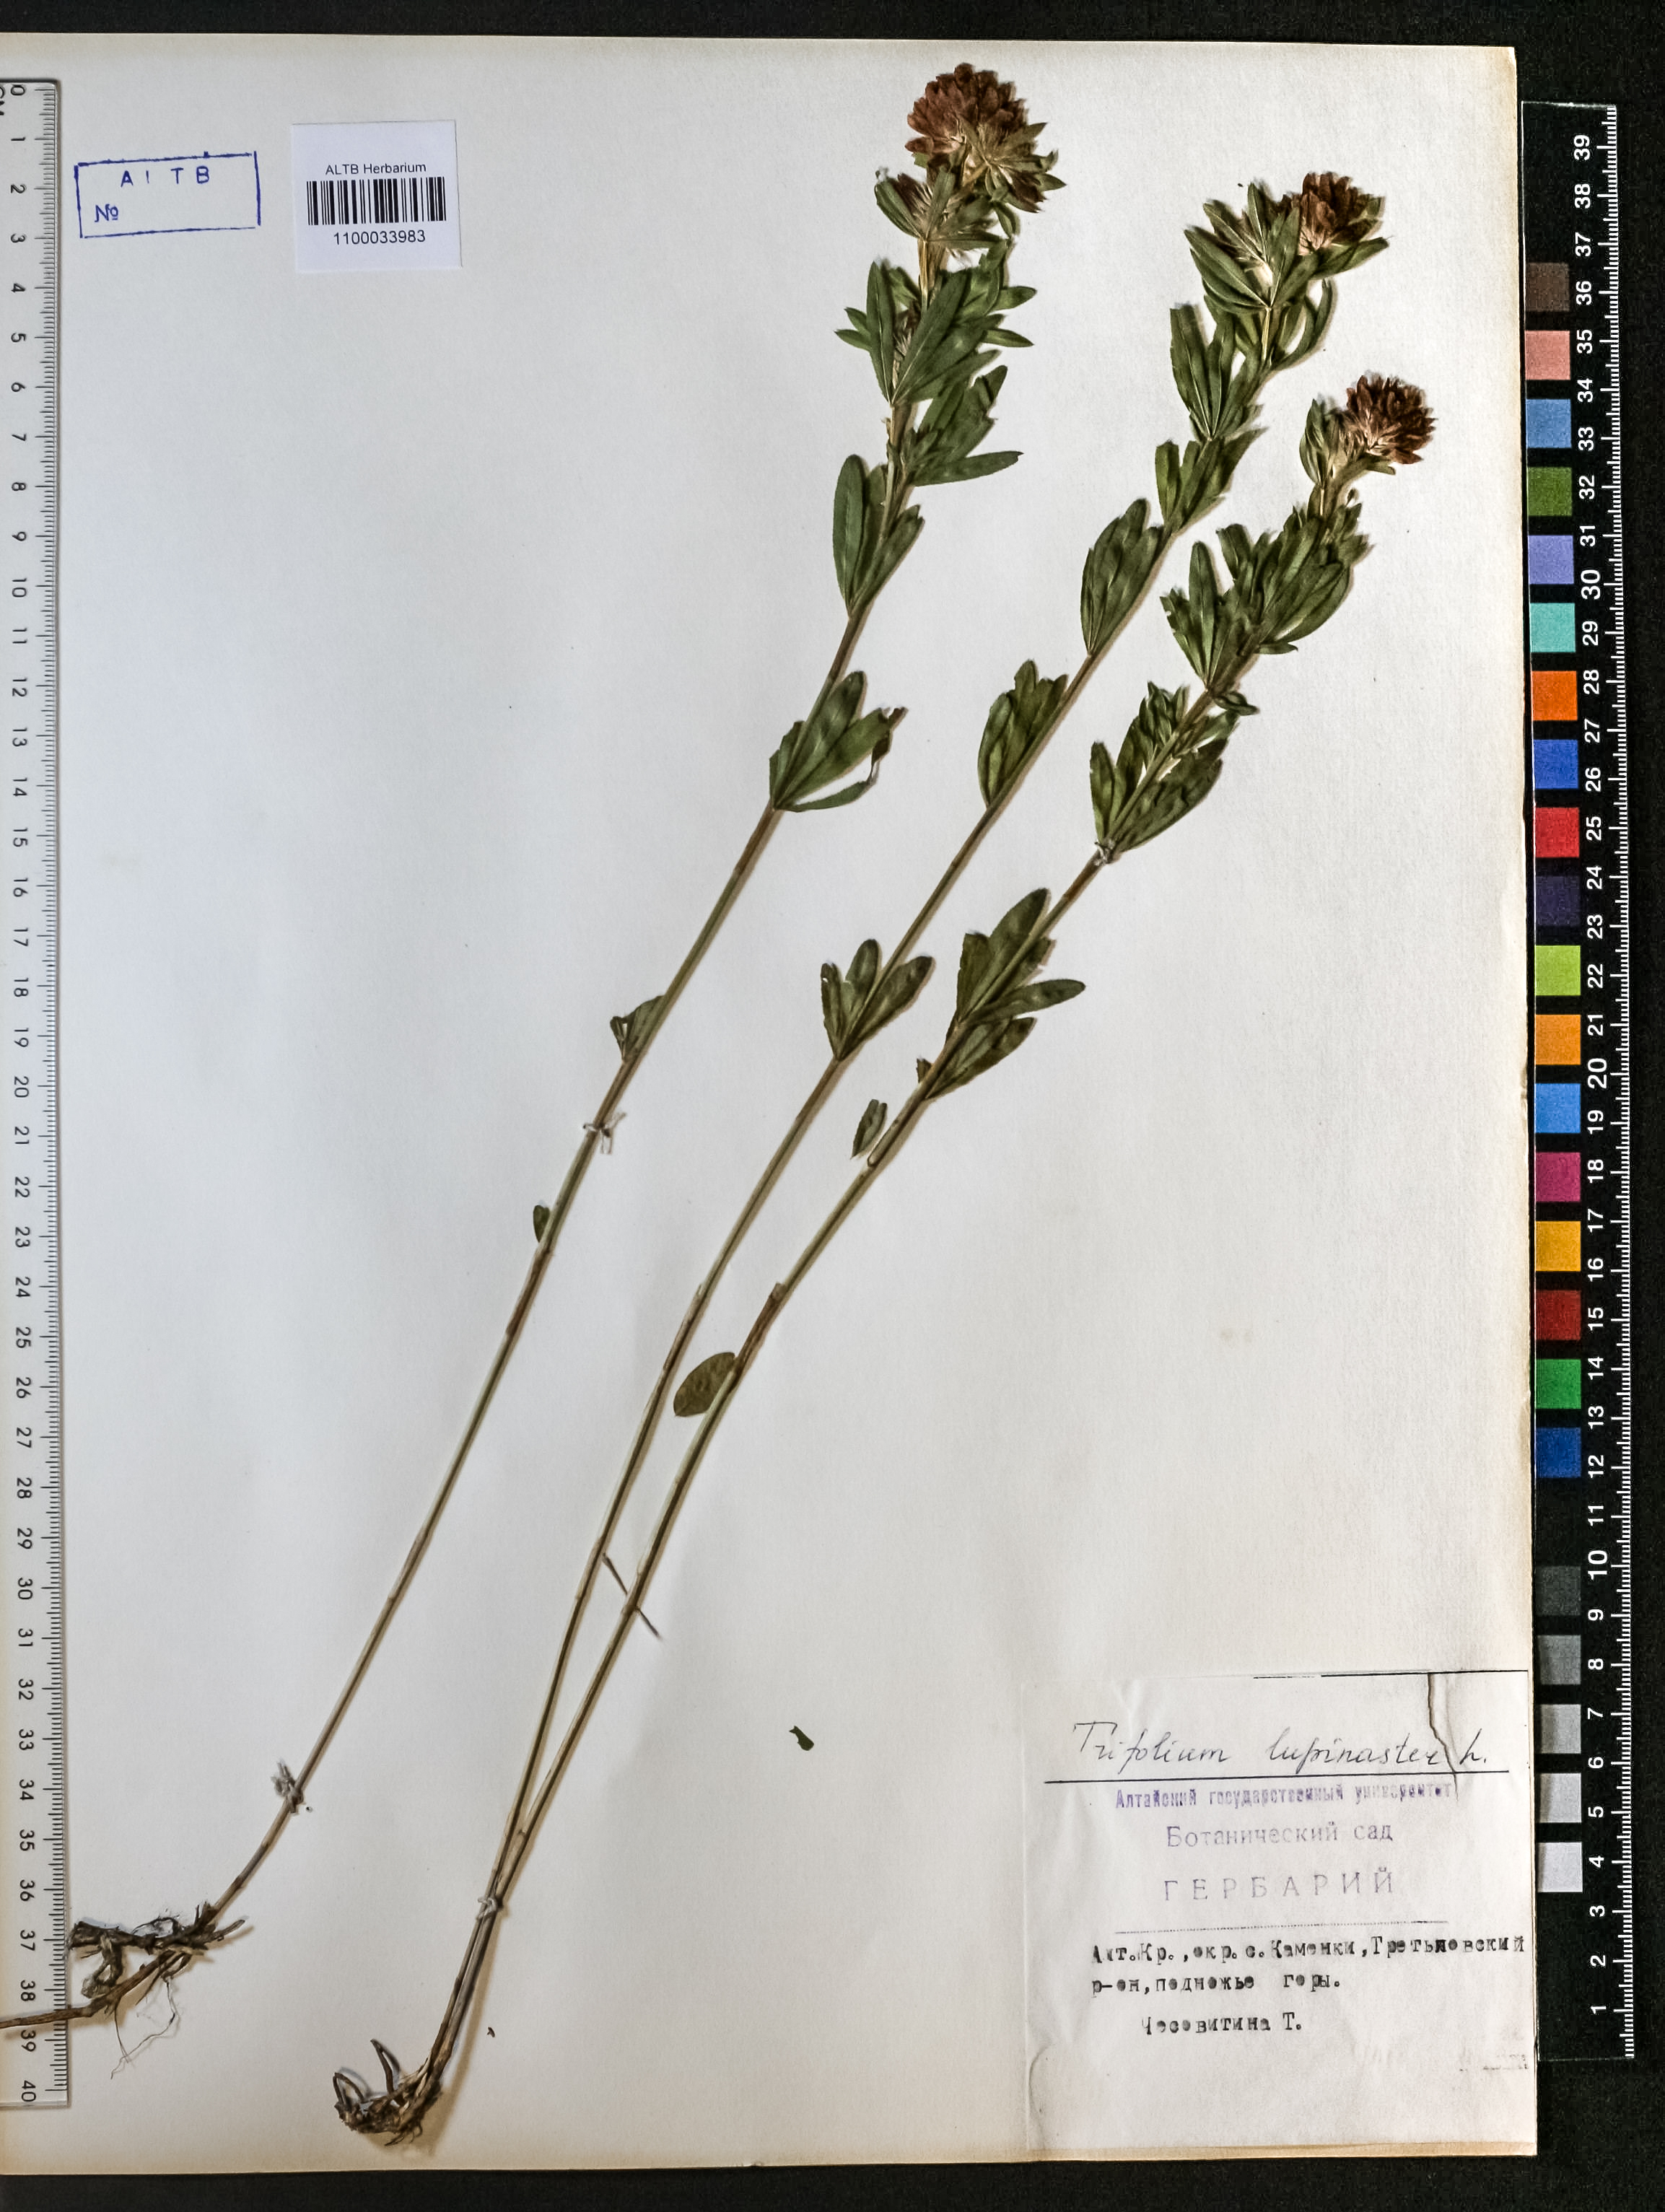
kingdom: Plantae
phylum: Tracheophyta
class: Magnoliopsida
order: Fabales
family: Fabaceae
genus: Trifolium
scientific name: Trifolium lupinaster
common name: Lupine clover
